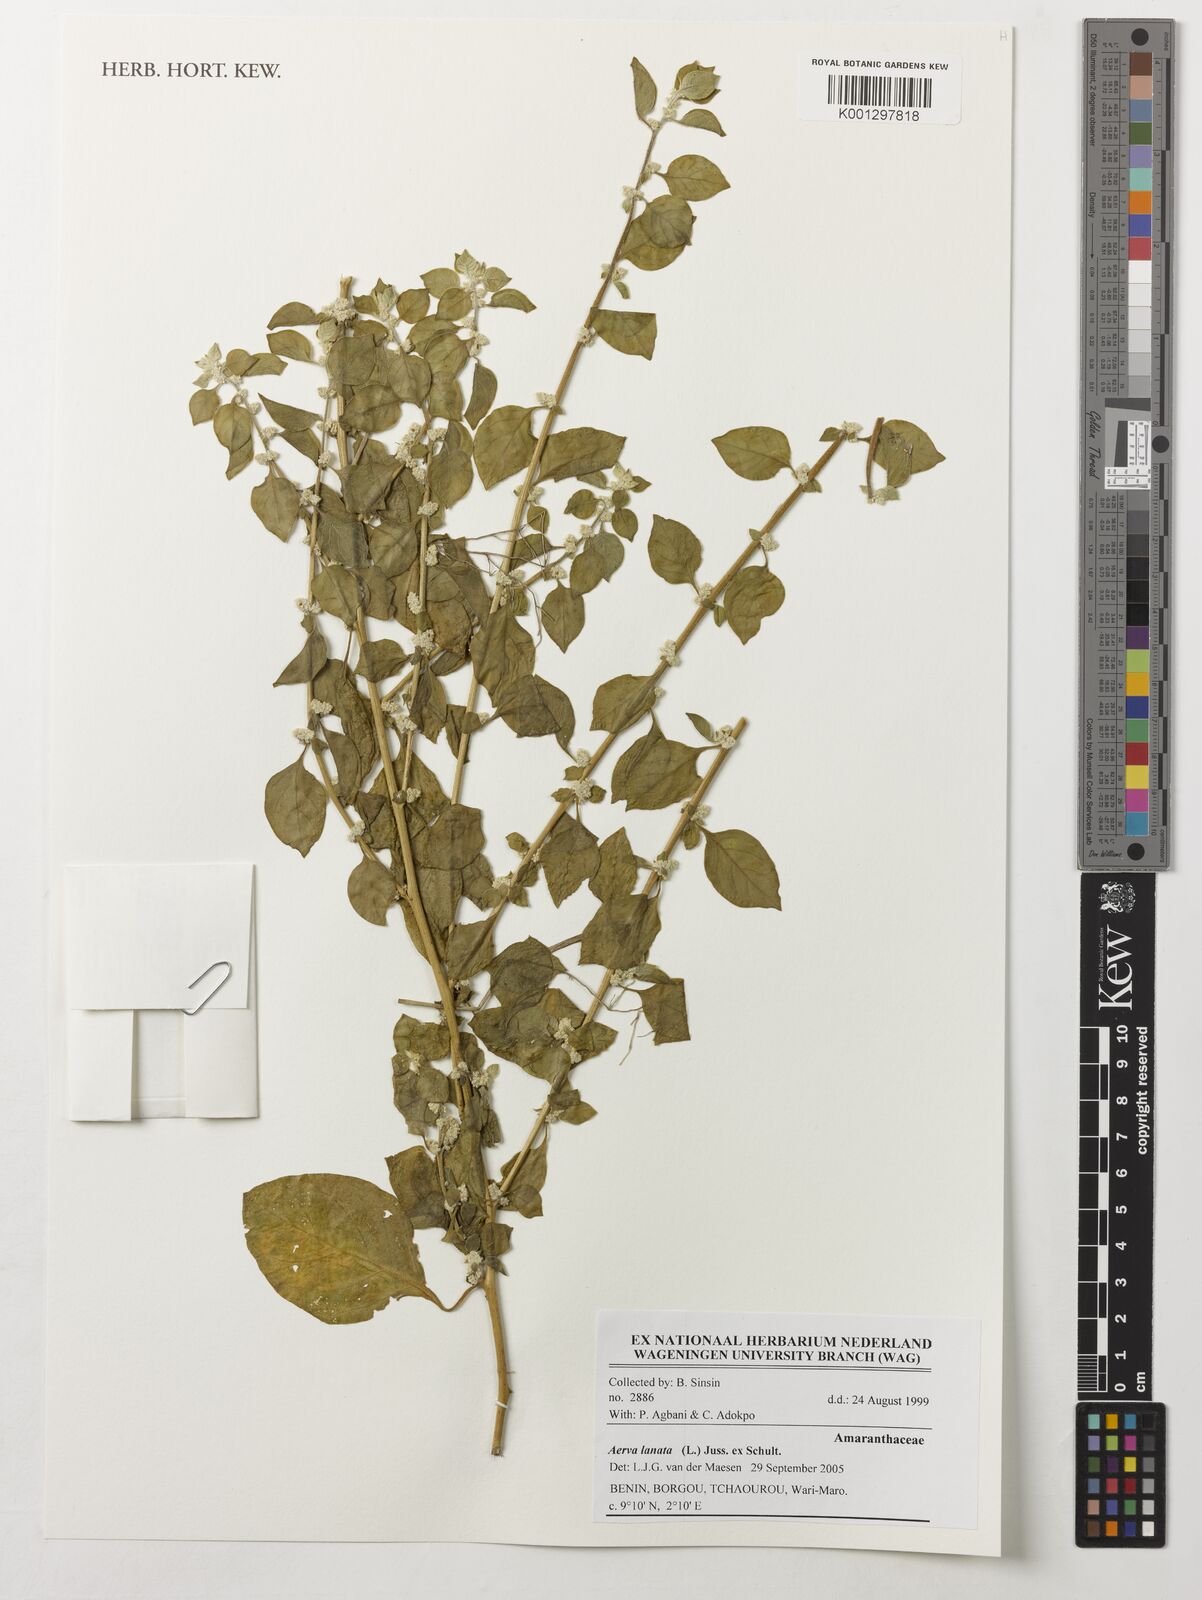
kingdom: Plantae
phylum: Tracheophyta
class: Magnoliopsida
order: Caryophyllales
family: Amaranthaceae
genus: Ouret
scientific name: Ouret lanata
